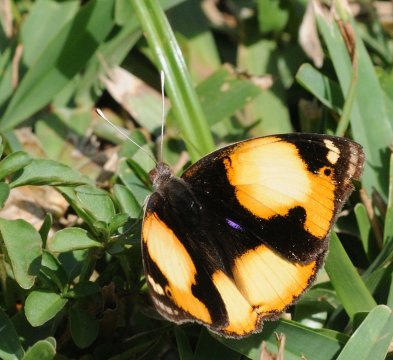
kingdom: Animalia
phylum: Arthropoda
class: Insecta
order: Lepidoptera
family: Nymphalidae
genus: Junonia
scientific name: Junonia hierta
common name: Yellow Pansy
